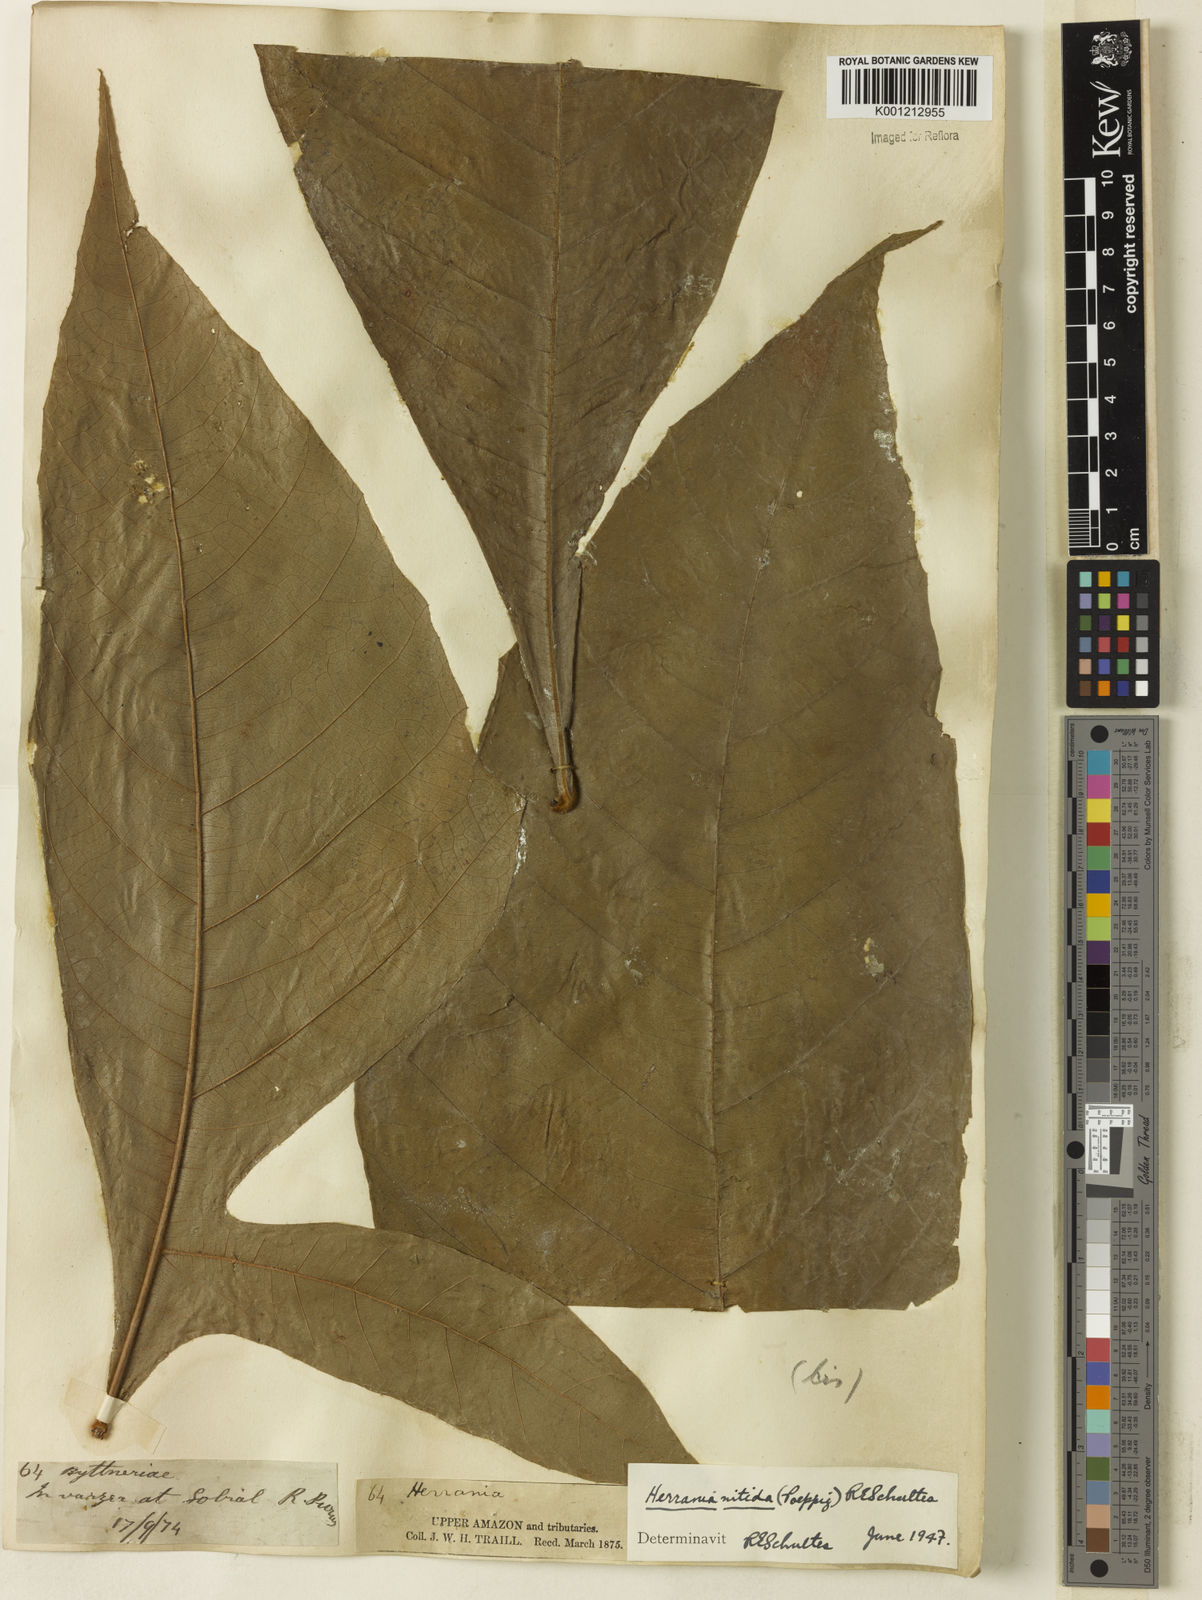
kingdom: Plantae
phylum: Tracheophyta
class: Magnoliopsida
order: Malvales
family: Malvaceae
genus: Herrania
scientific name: Herrania mariae
